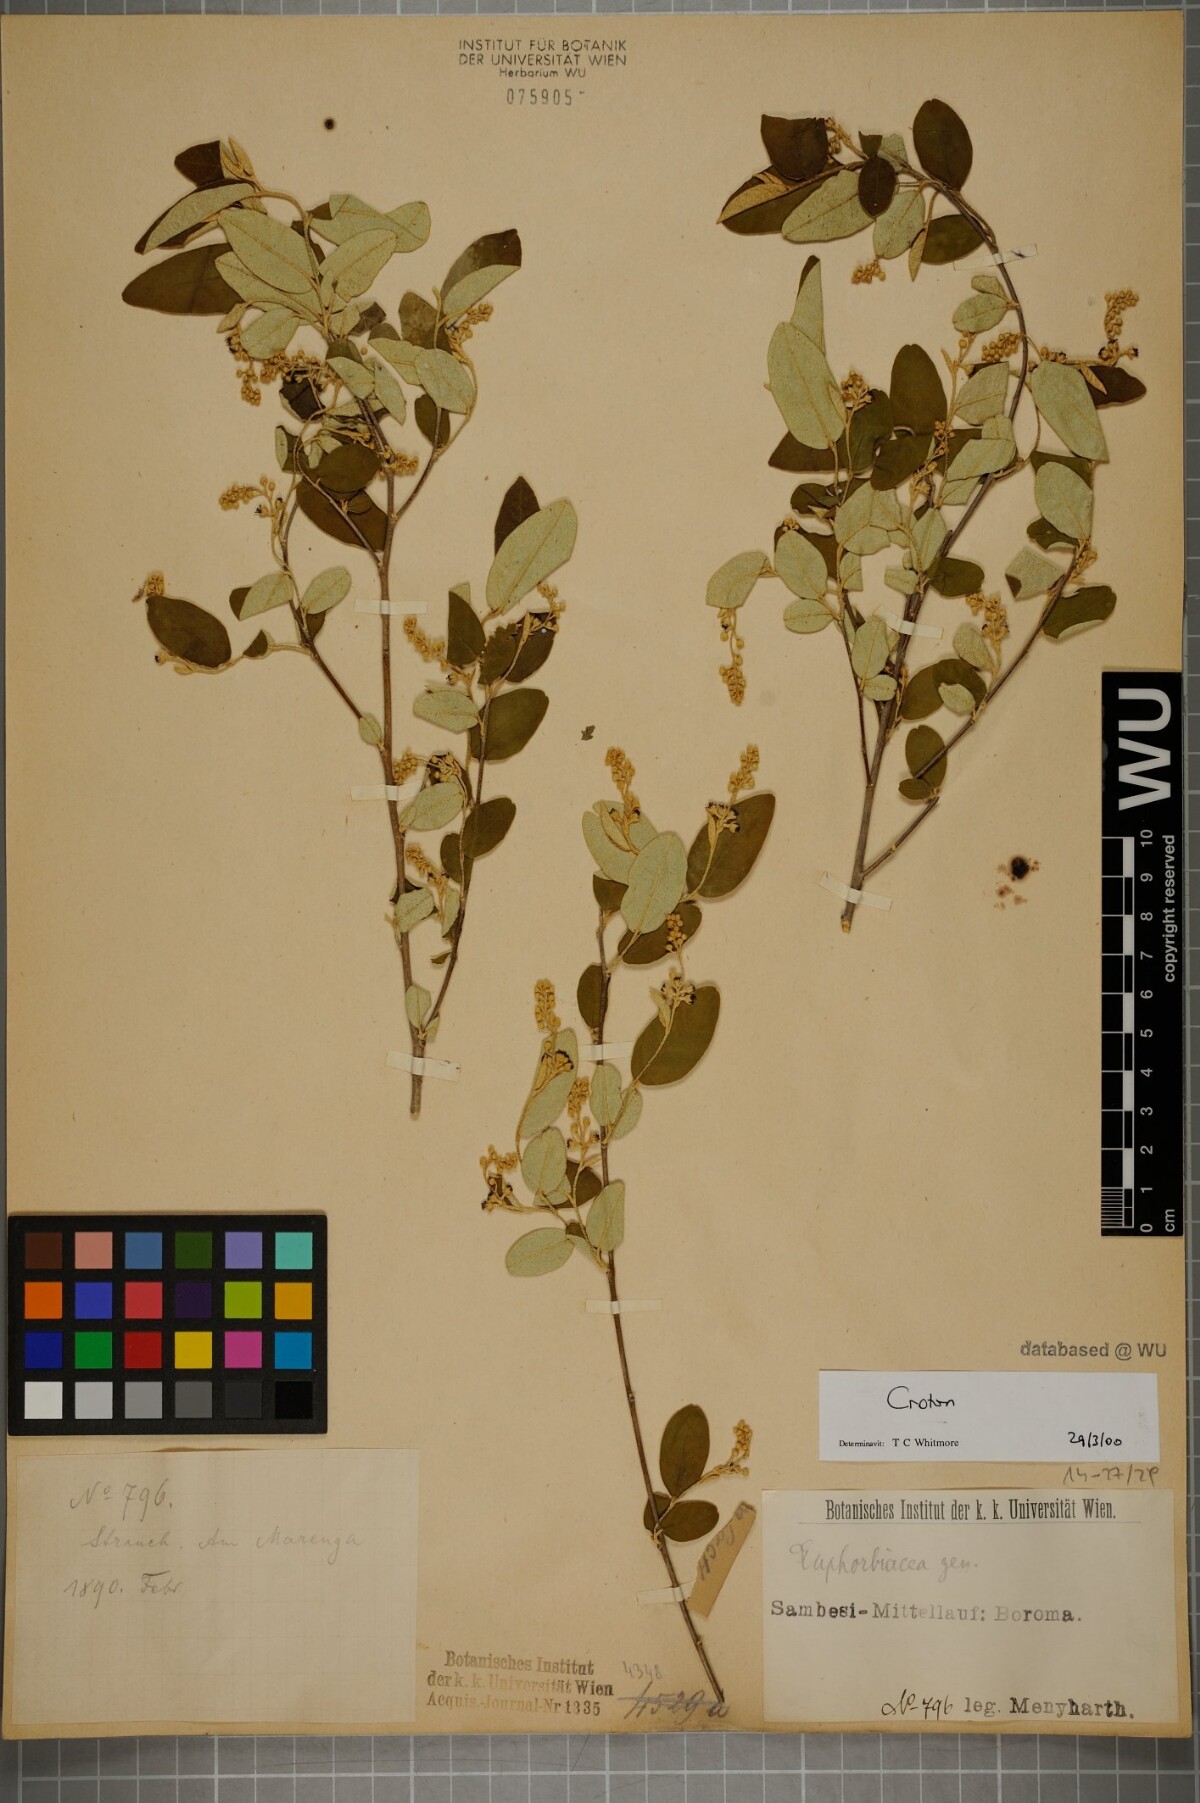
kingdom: Plantae
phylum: Tracheophyta
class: Magnoliopsida
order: Malpighiales
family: Euphorbiaceae
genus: Croton
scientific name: Croton
